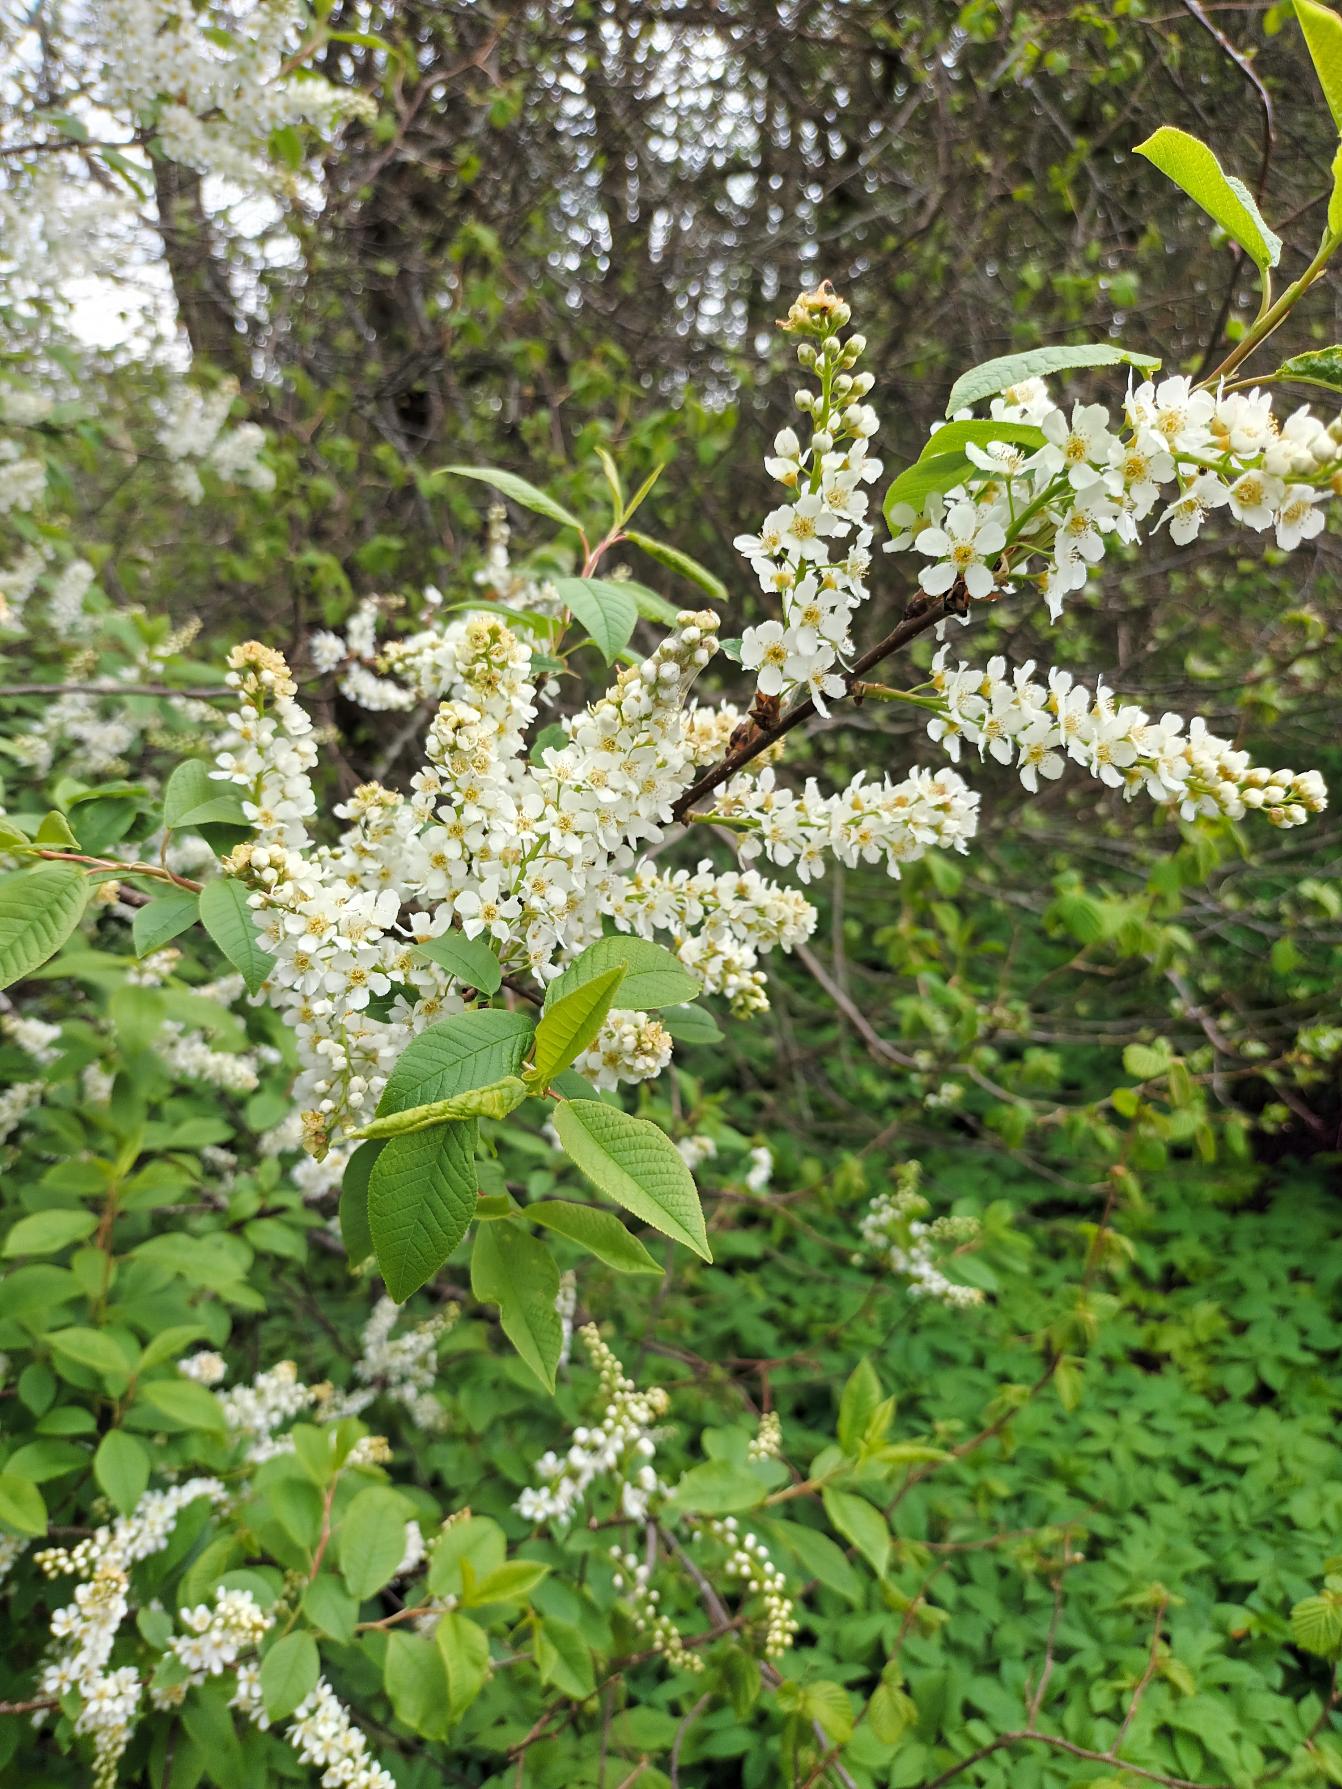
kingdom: Plantae
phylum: Tracheophyta
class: Magnoliopsida
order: Rosales
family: Rosaceae
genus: Prunus
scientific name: Prunus padus
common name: Almindelig hæg
